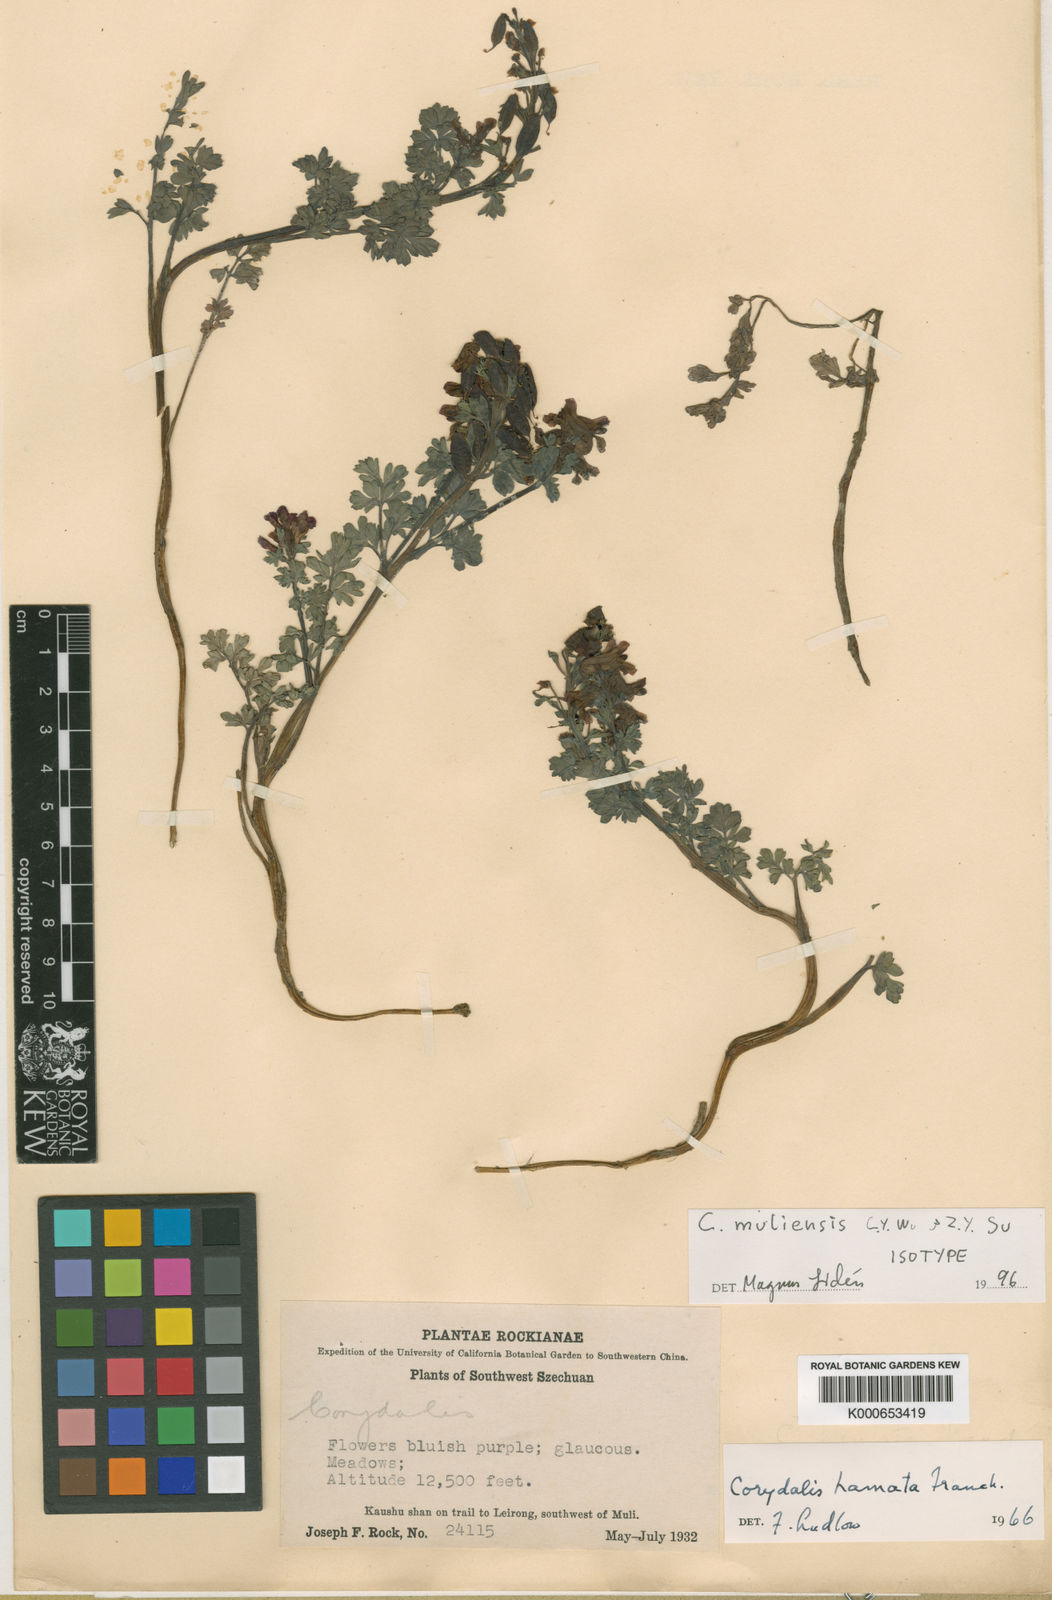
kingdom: Plantae
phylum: Tracheophyta
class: Magnoliopsida
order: Ranunculales
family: Papaveraceae
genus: Corydalis
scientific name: Corydalis muliensis
